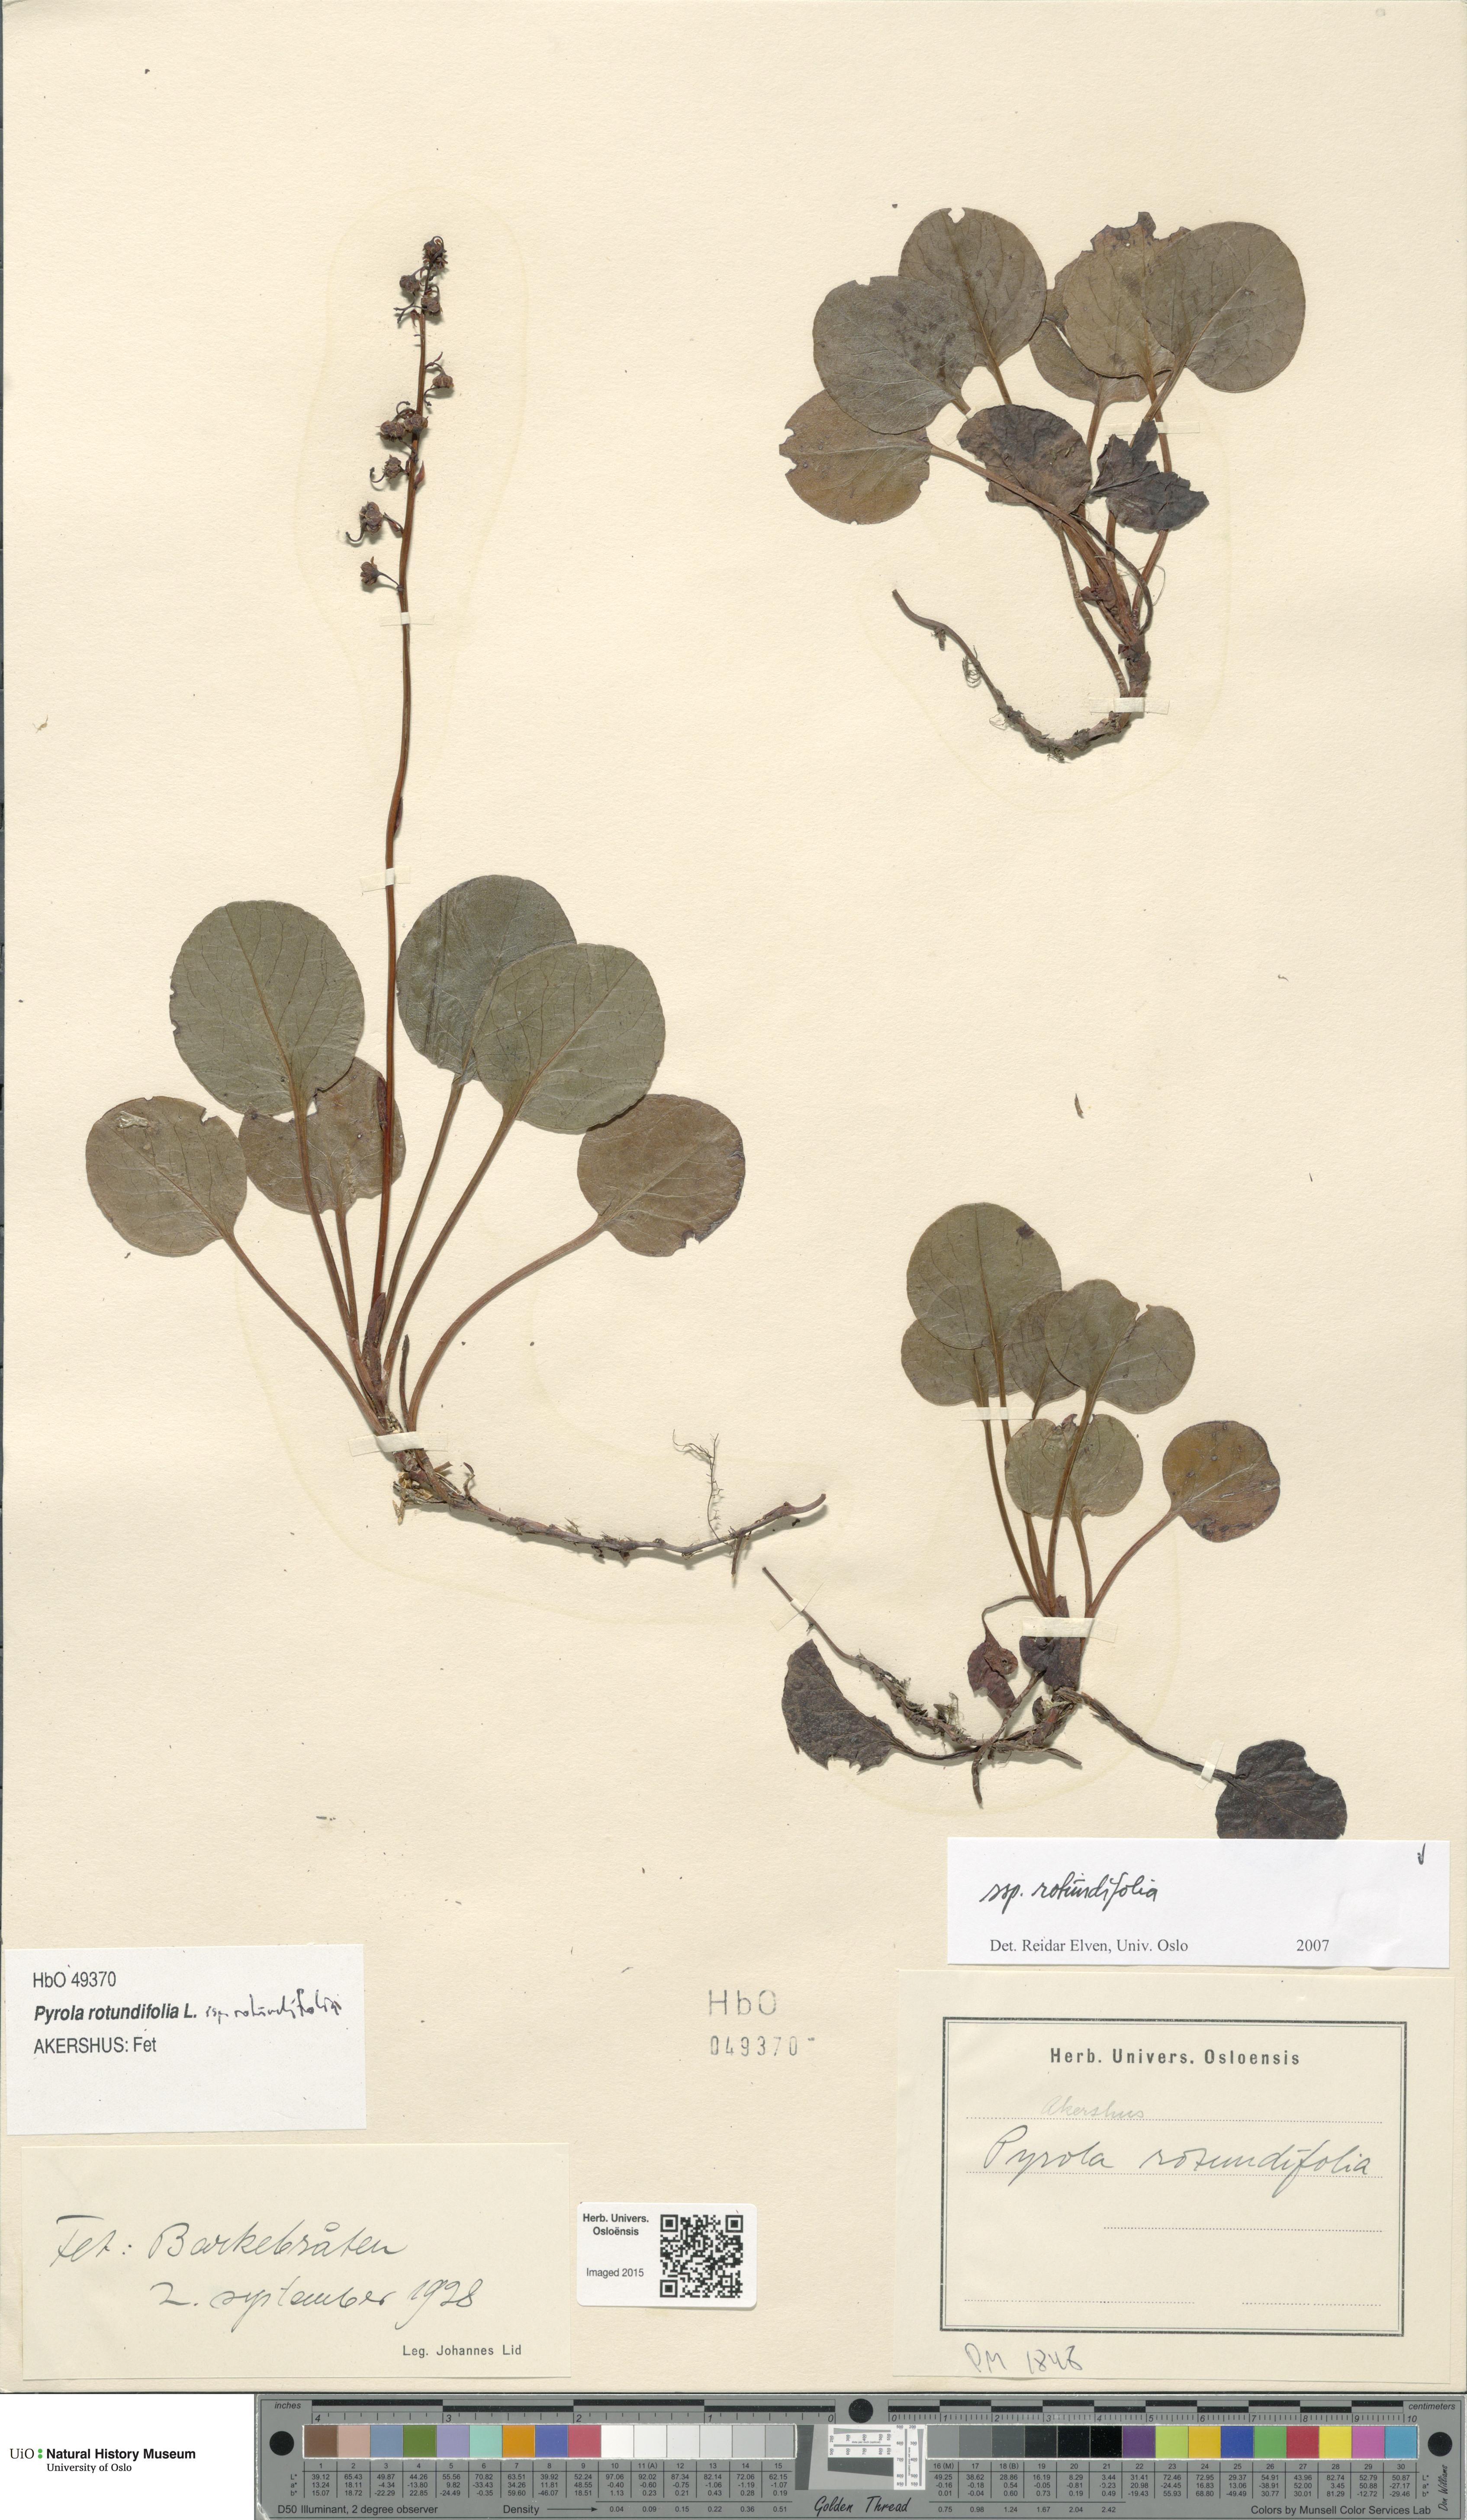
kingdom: Plantae
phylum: Tracheophyta
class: Magnoliopsida
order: Ericales
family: Ericaceae
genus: Pyrola
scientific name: Pyrola rotundifolia
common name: Round-leaved wintergreen
